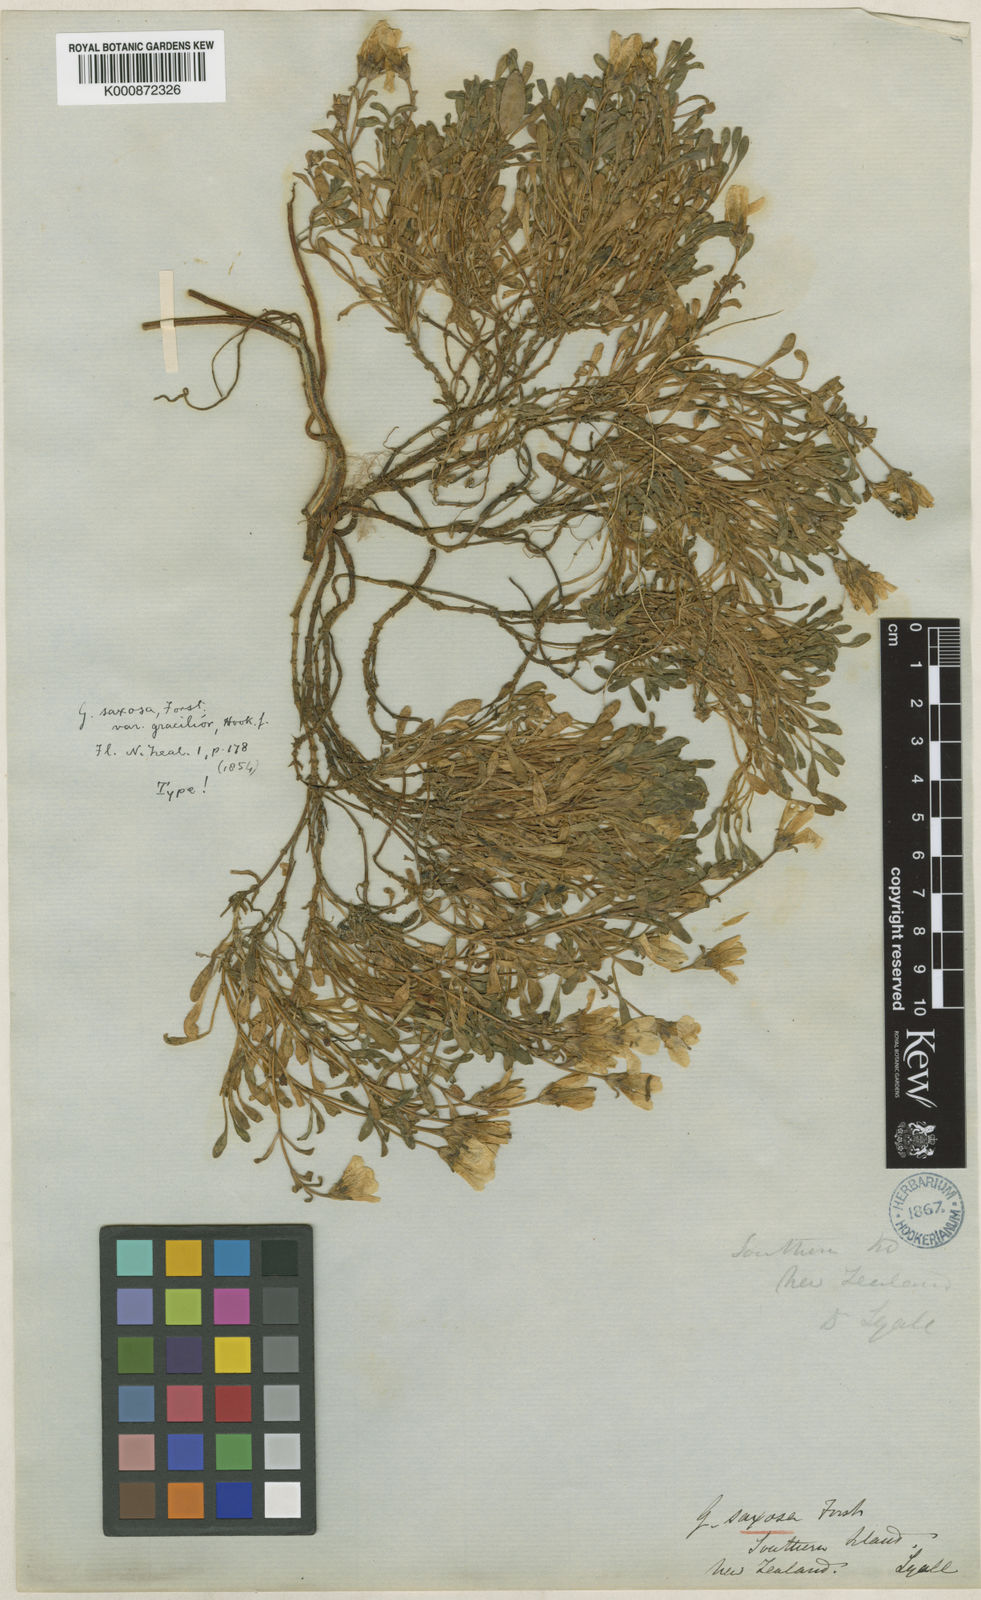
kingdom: Plantae
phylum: Tracheophyta
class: Magnoliopsida
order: Gentianales
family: Gentianaceae
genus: Gentianella
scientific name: Gentianella saxosa
